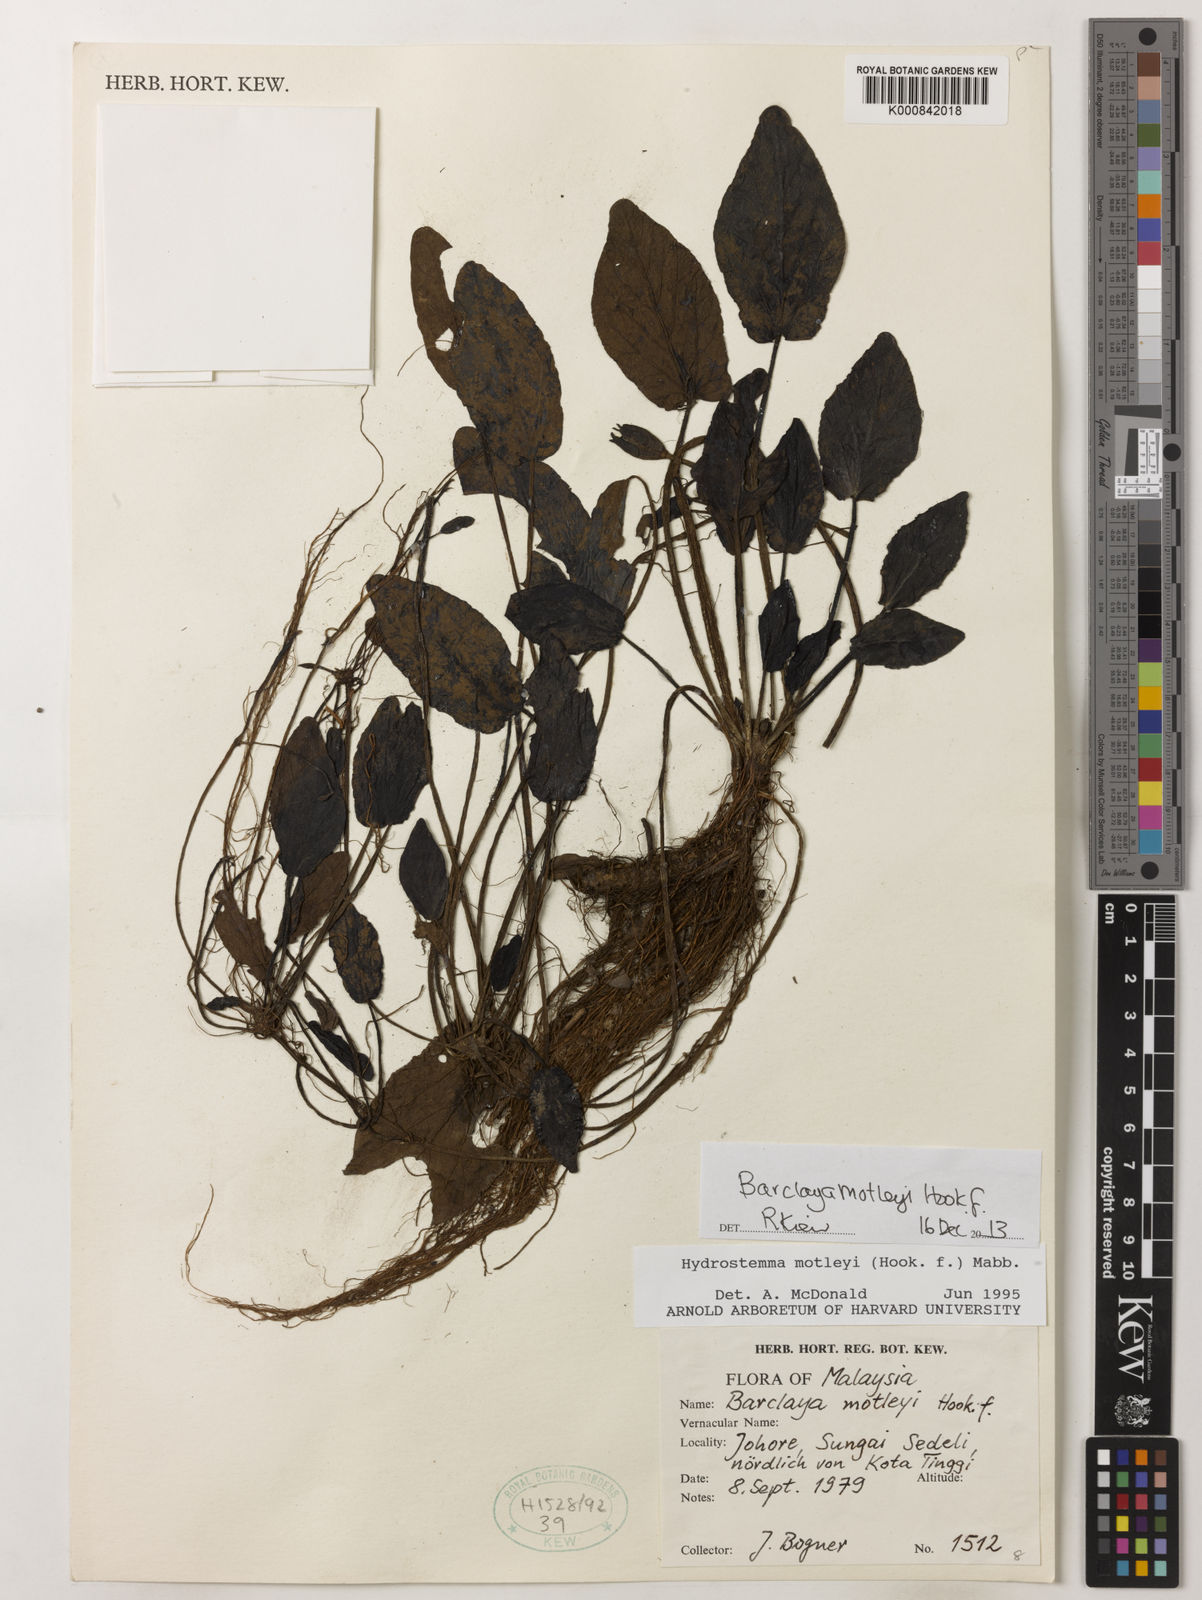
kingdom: Plantae
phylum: Tracheophyta
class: Magnoliopsida
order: Nymphaeales
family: Nymphaeaceae
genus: Barclaya
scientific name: Barclaya motleyi
